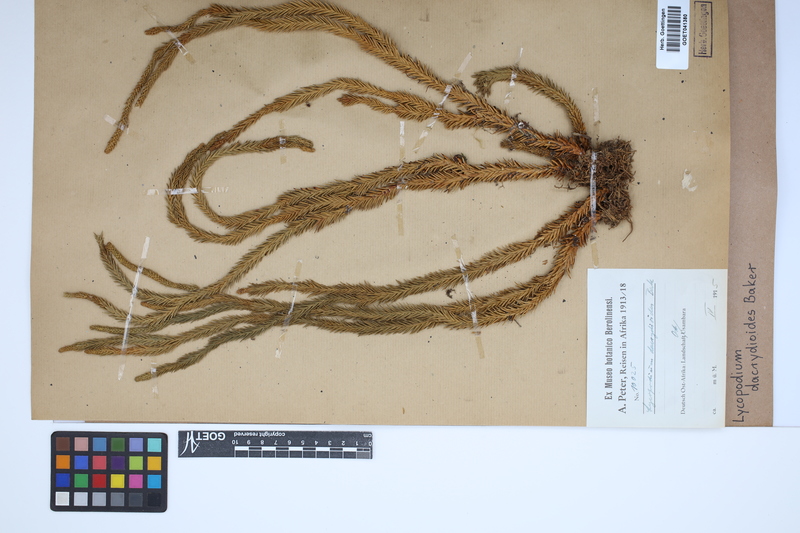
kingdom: Plantae
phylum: Tracheophyta
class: Lycopodiopsida
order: Lycopodiales
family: Lycopodiaceae
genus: Phlegmariurus
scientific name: Phlegmariurus dacrydioides
